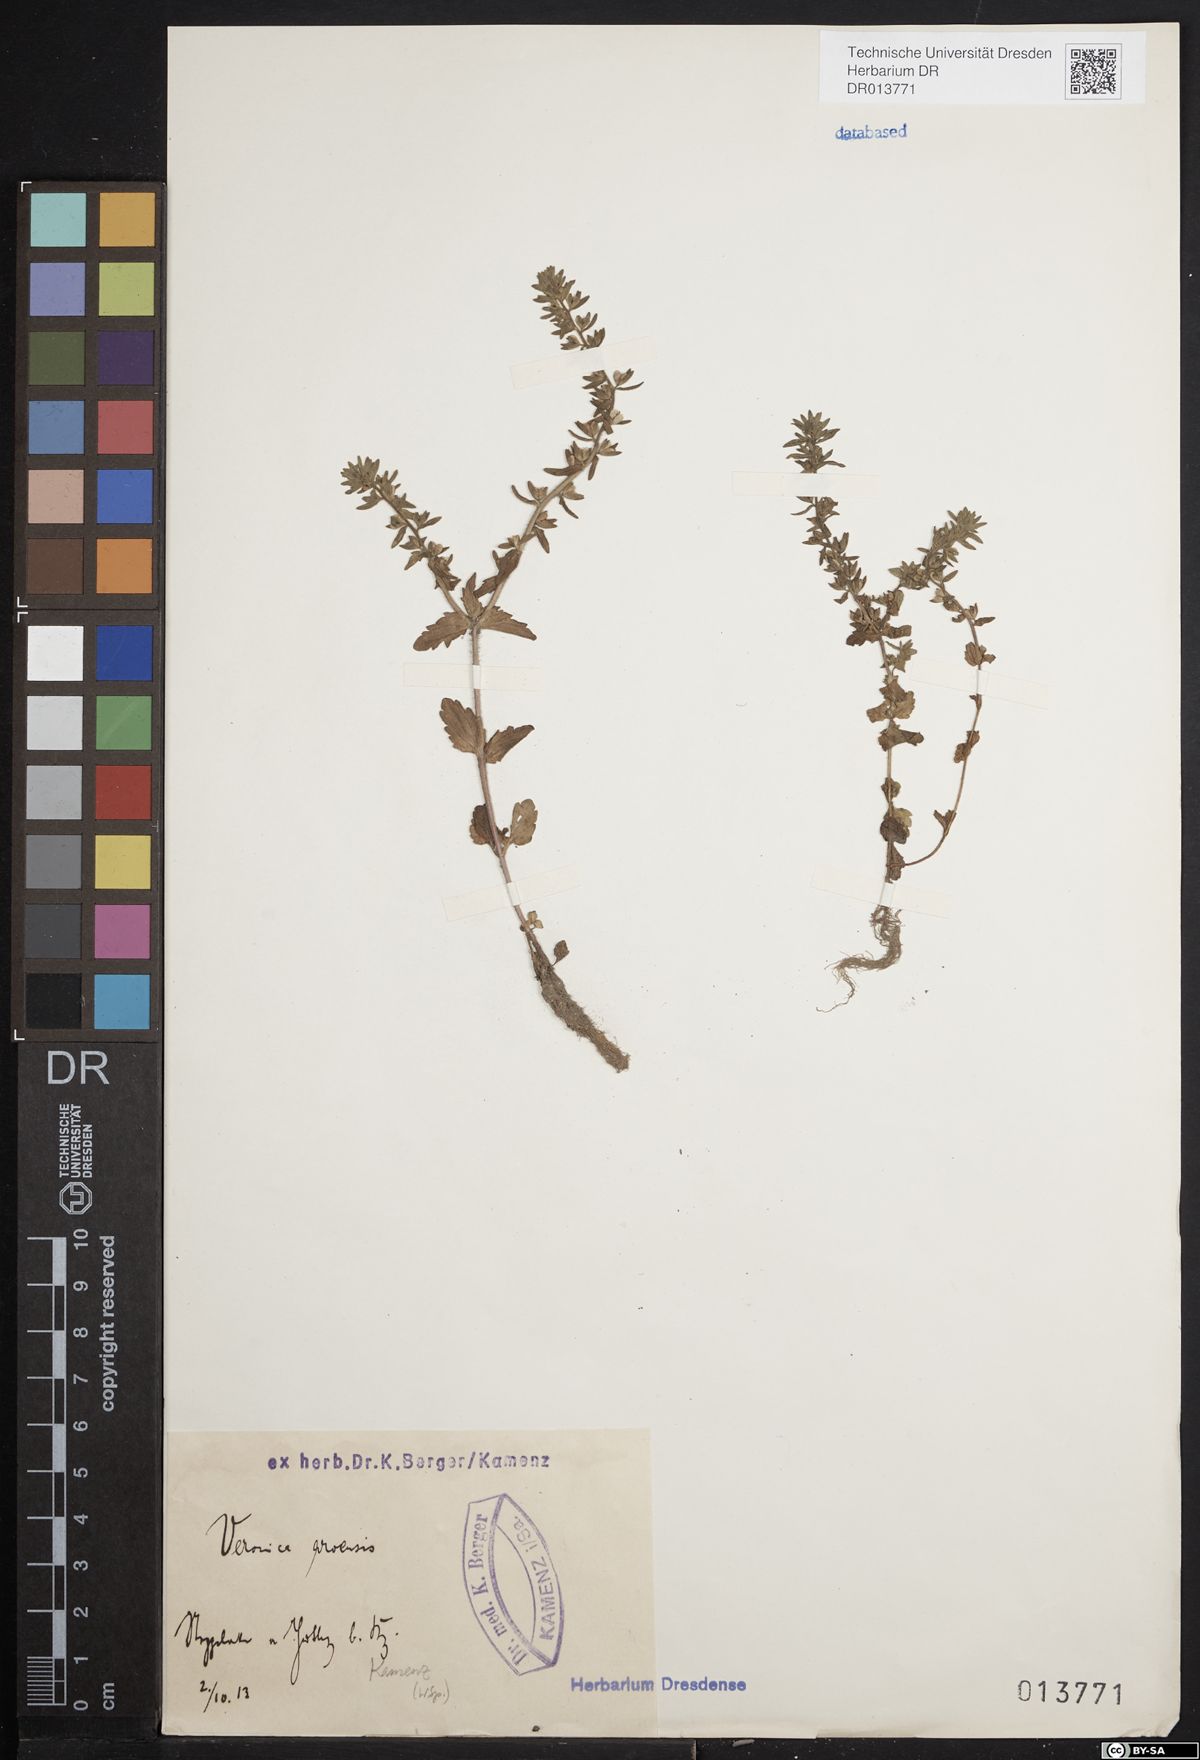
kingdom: Plantae
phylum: Tracheophyta
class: Magnoliopsida
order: Lamiales
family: Plantaginaceae
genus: Veronica
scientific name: Veronica arvensis
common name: Corn speedwell
